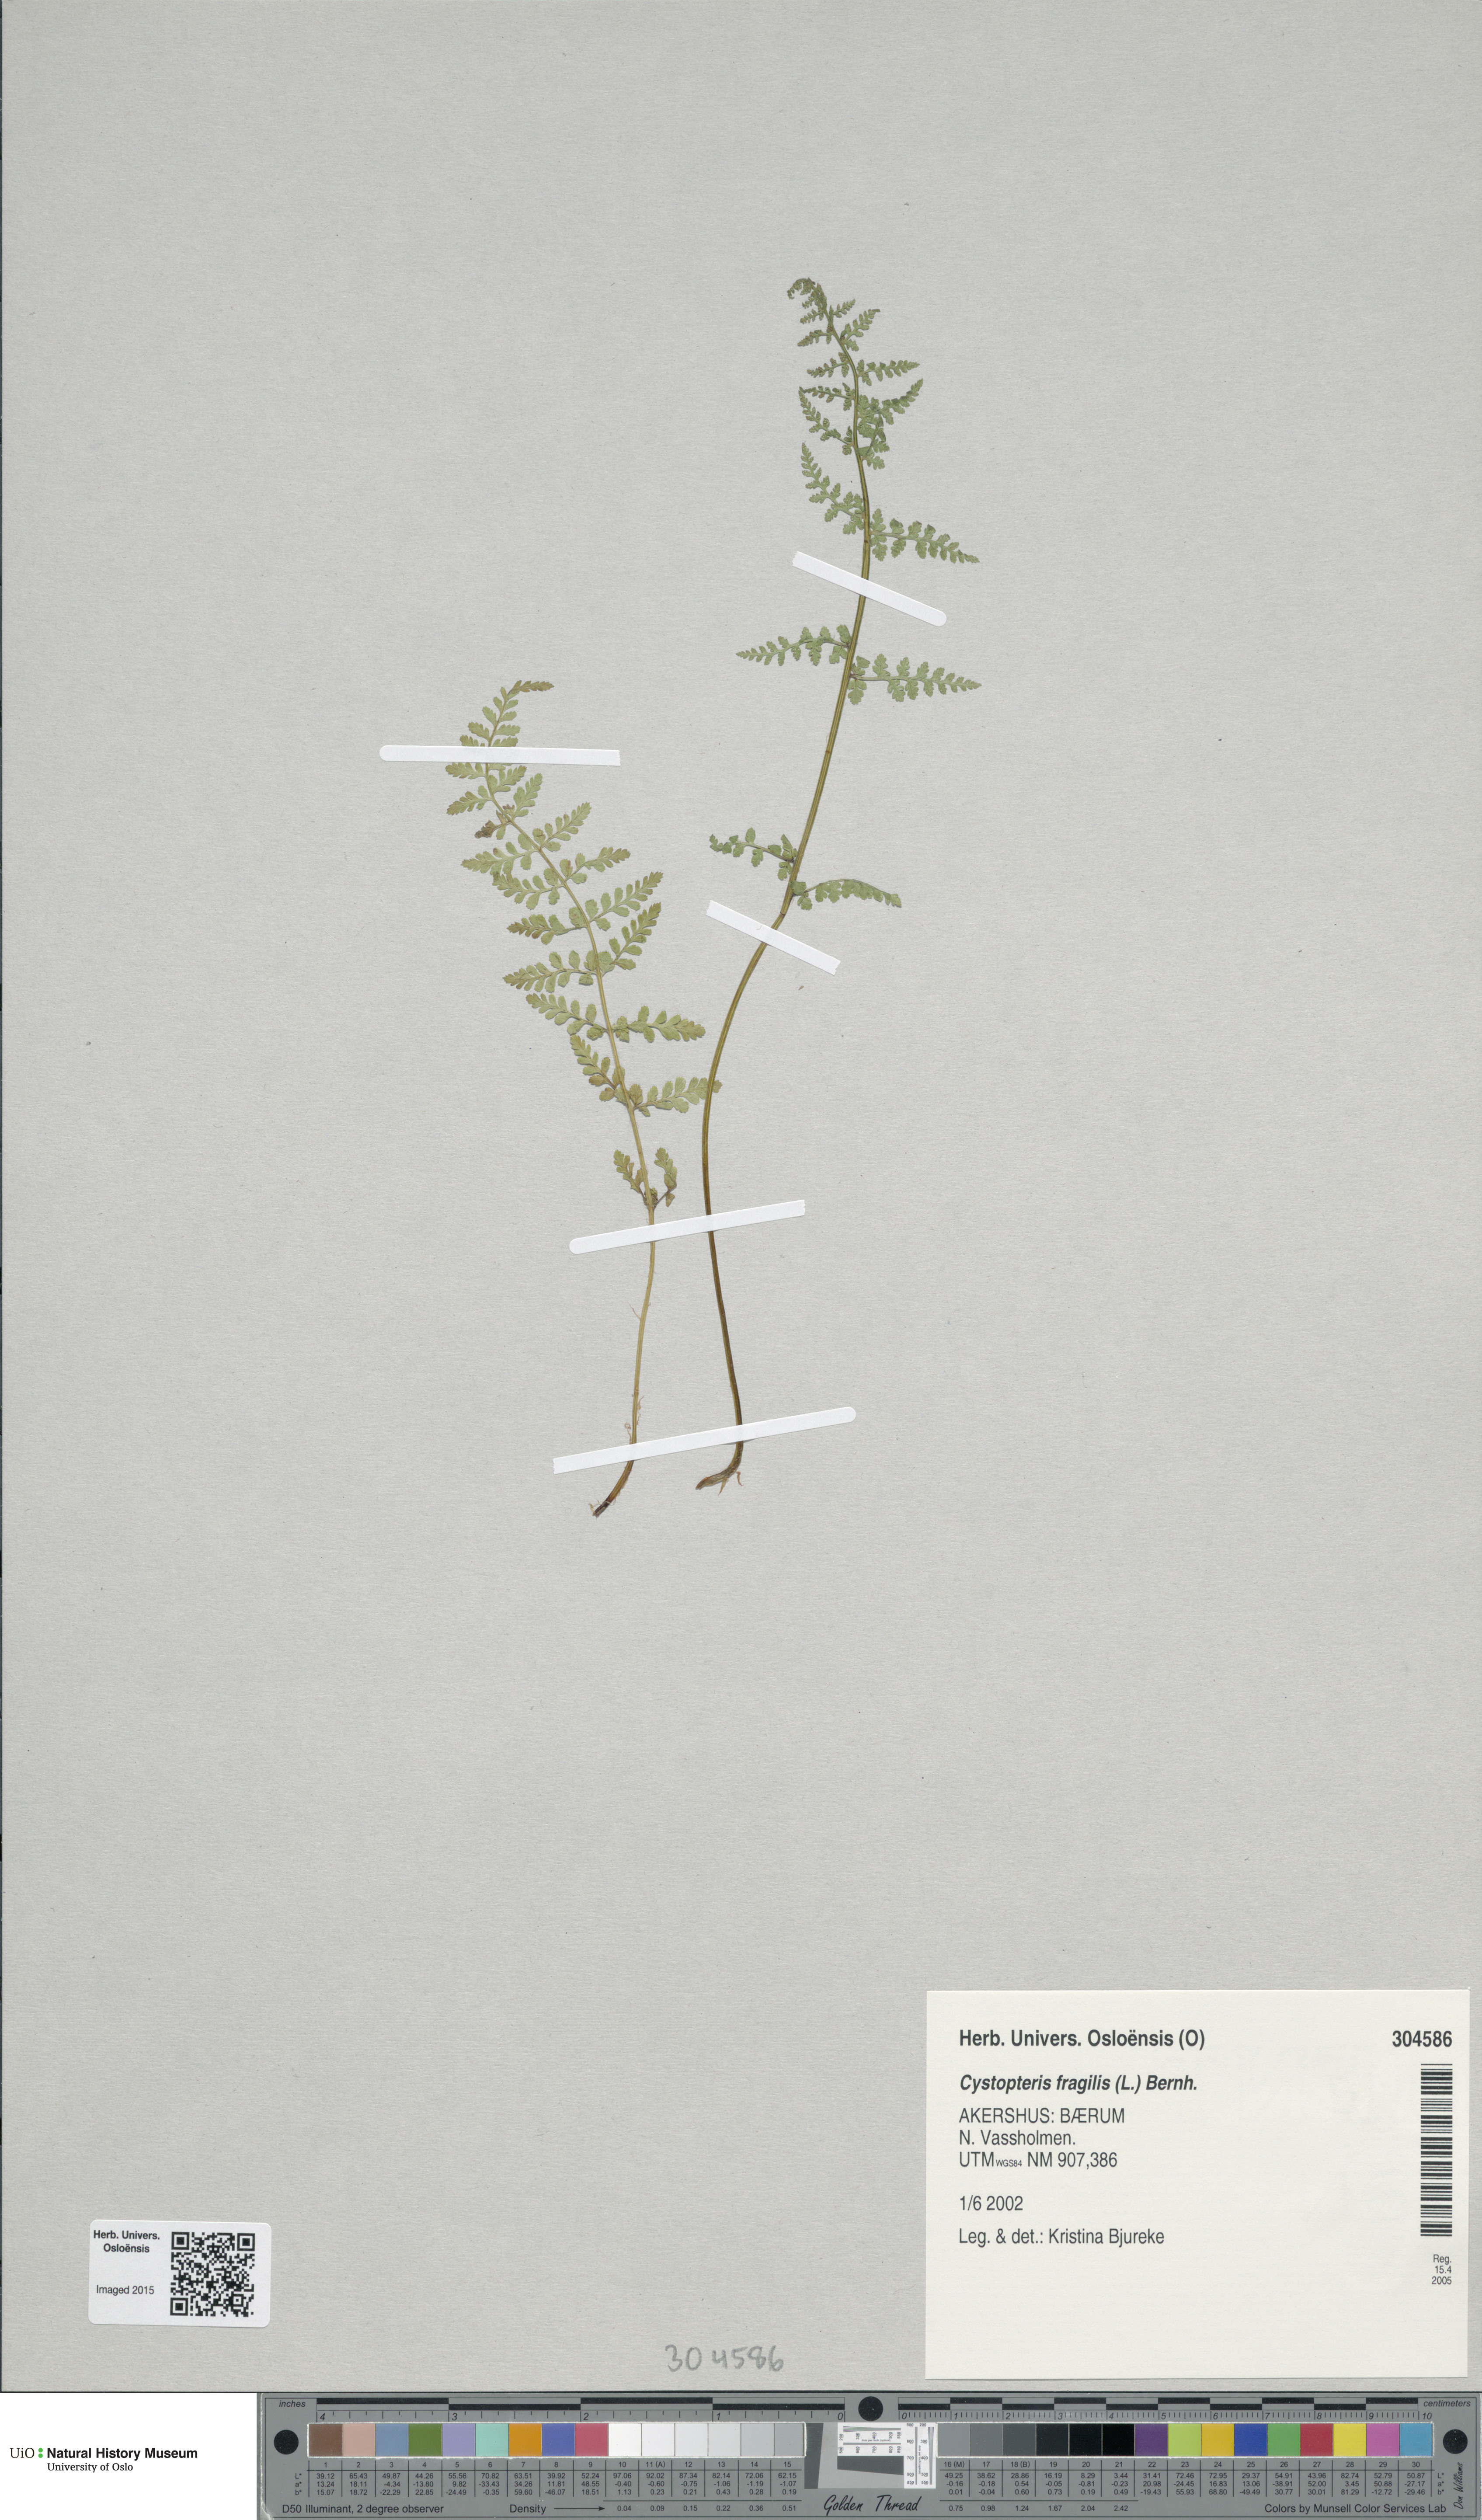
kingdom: Plantae
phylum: Tracheophyta
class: Polypodiopsida
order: Polypodiales
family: Cystopteridaceae
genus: Cystopteris
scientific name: Cystopteris fragilis
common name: Brittle bladder fern
